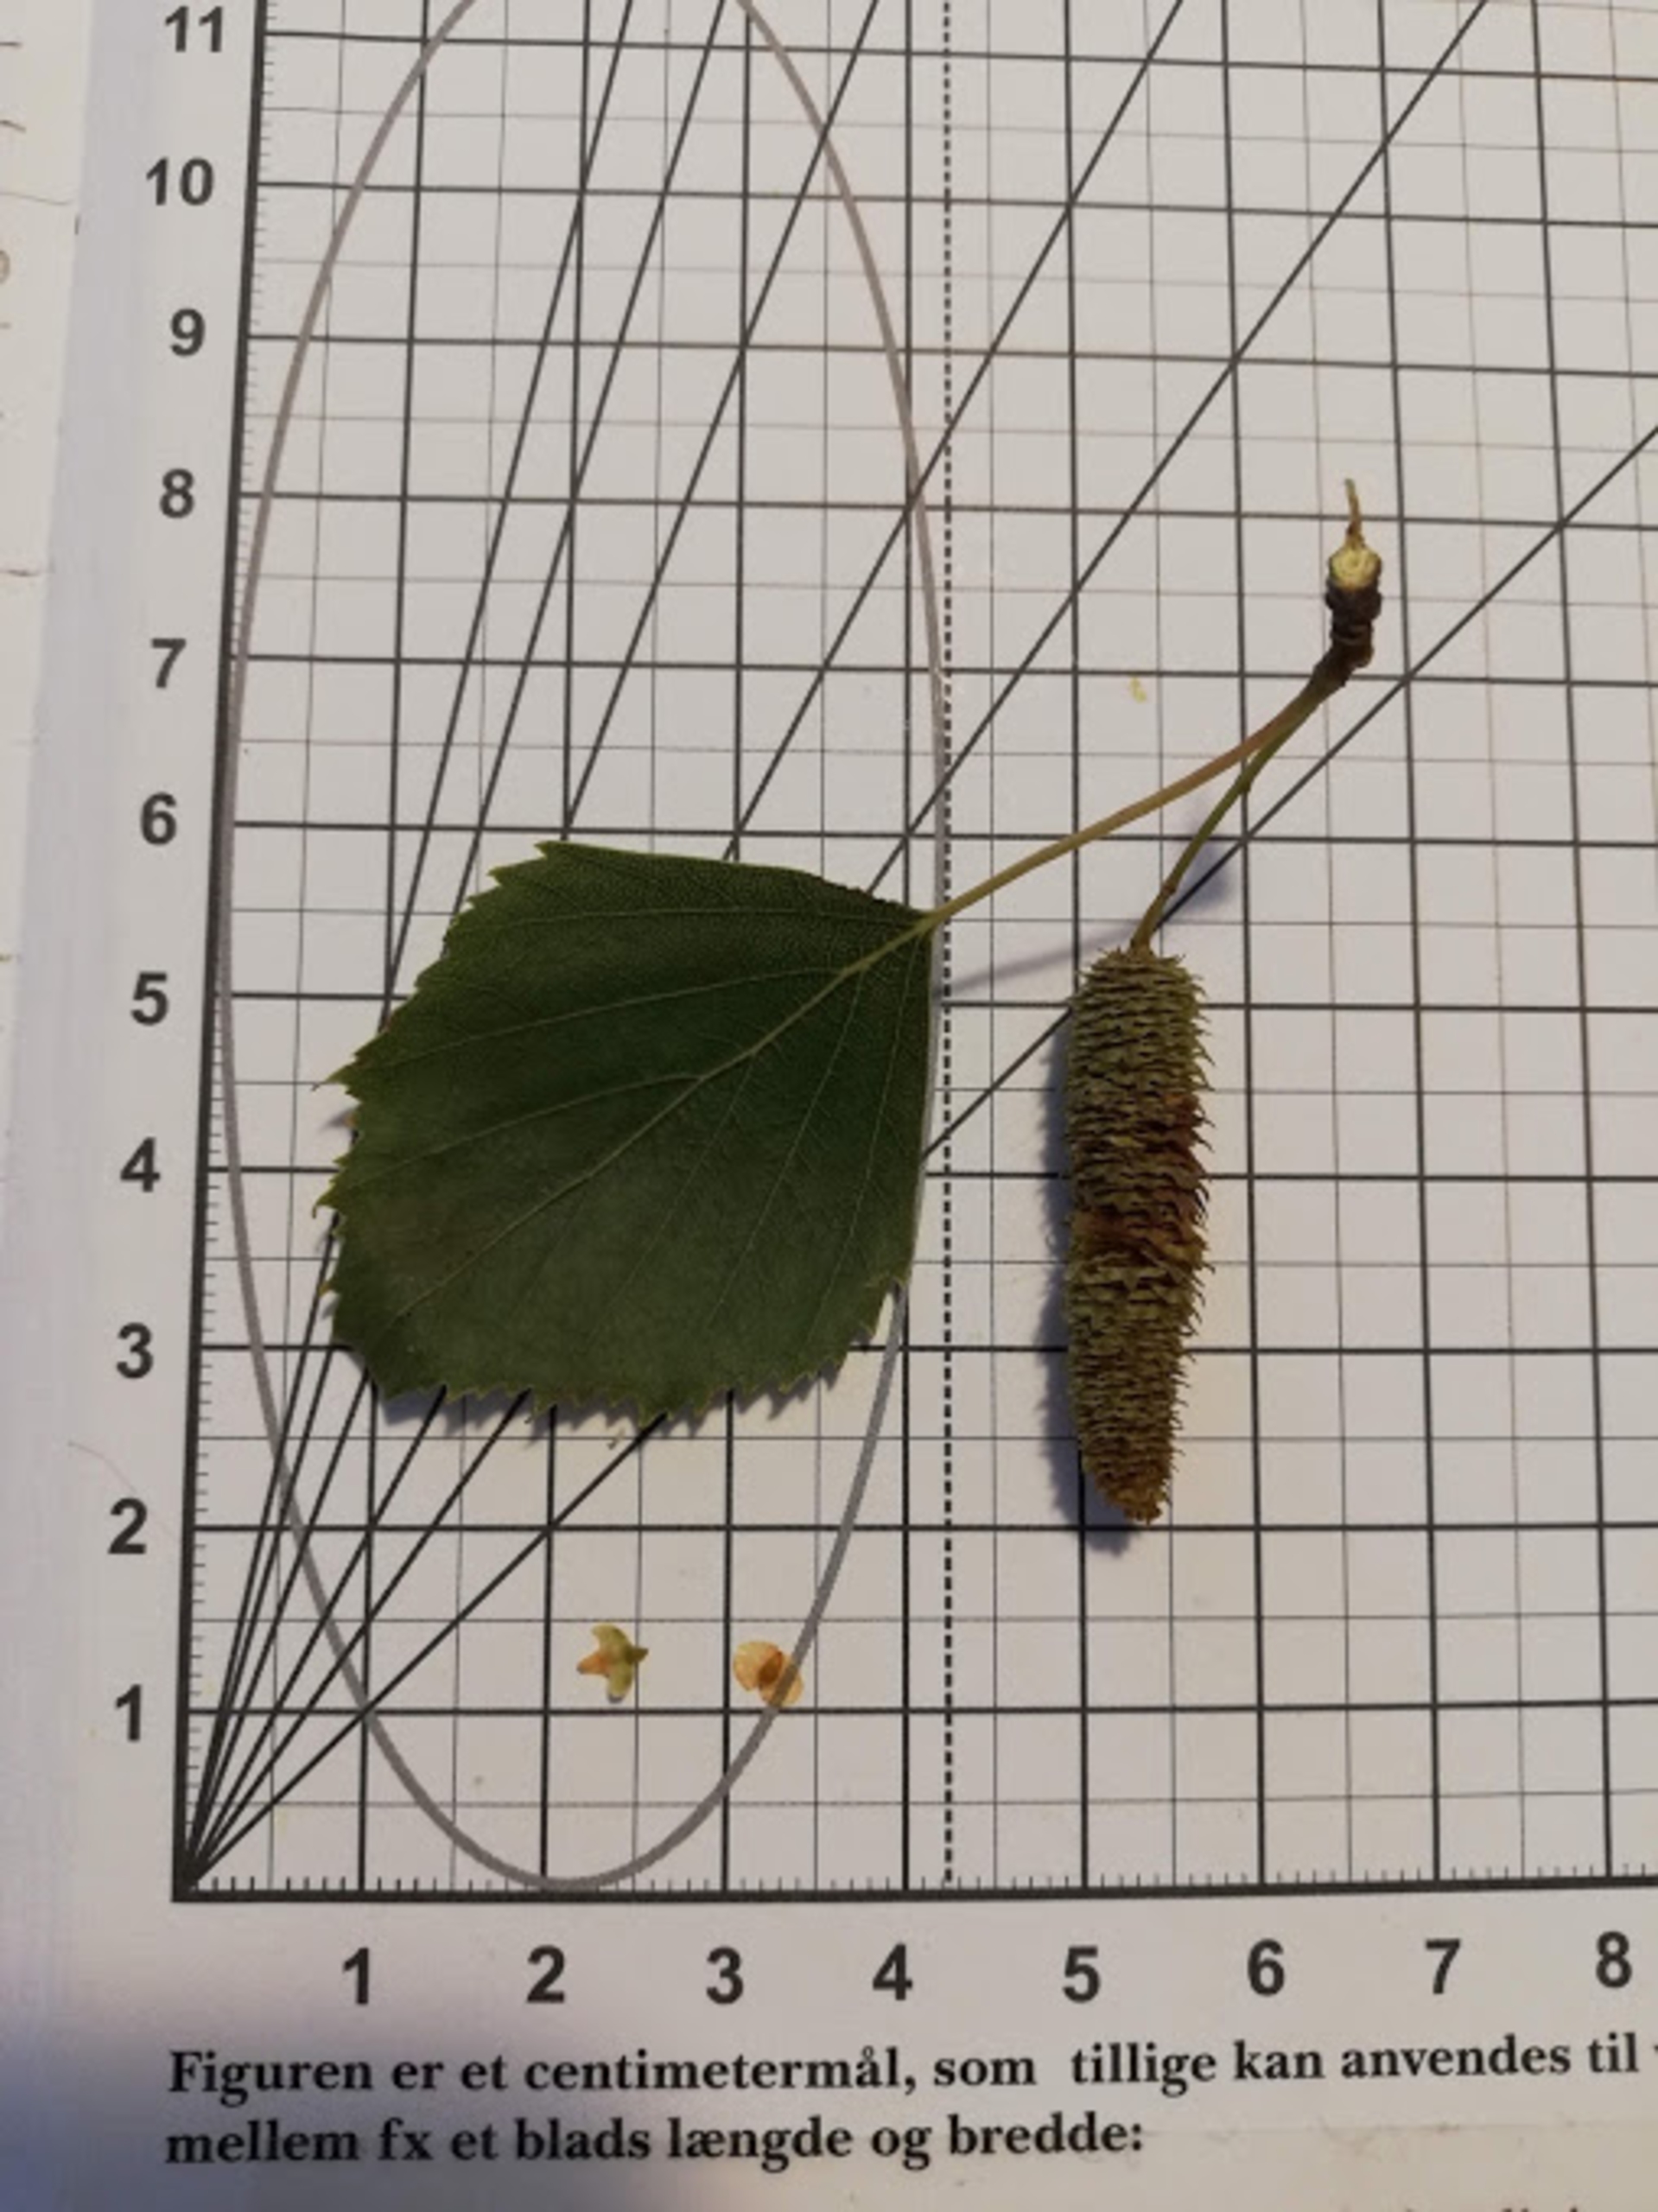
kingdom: Plantae
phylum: Tracheophyta
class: Magnoliopsida
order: Fagales
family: Betulaceae
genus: Betula
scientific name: Betula pendula
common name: Vorte-birk
